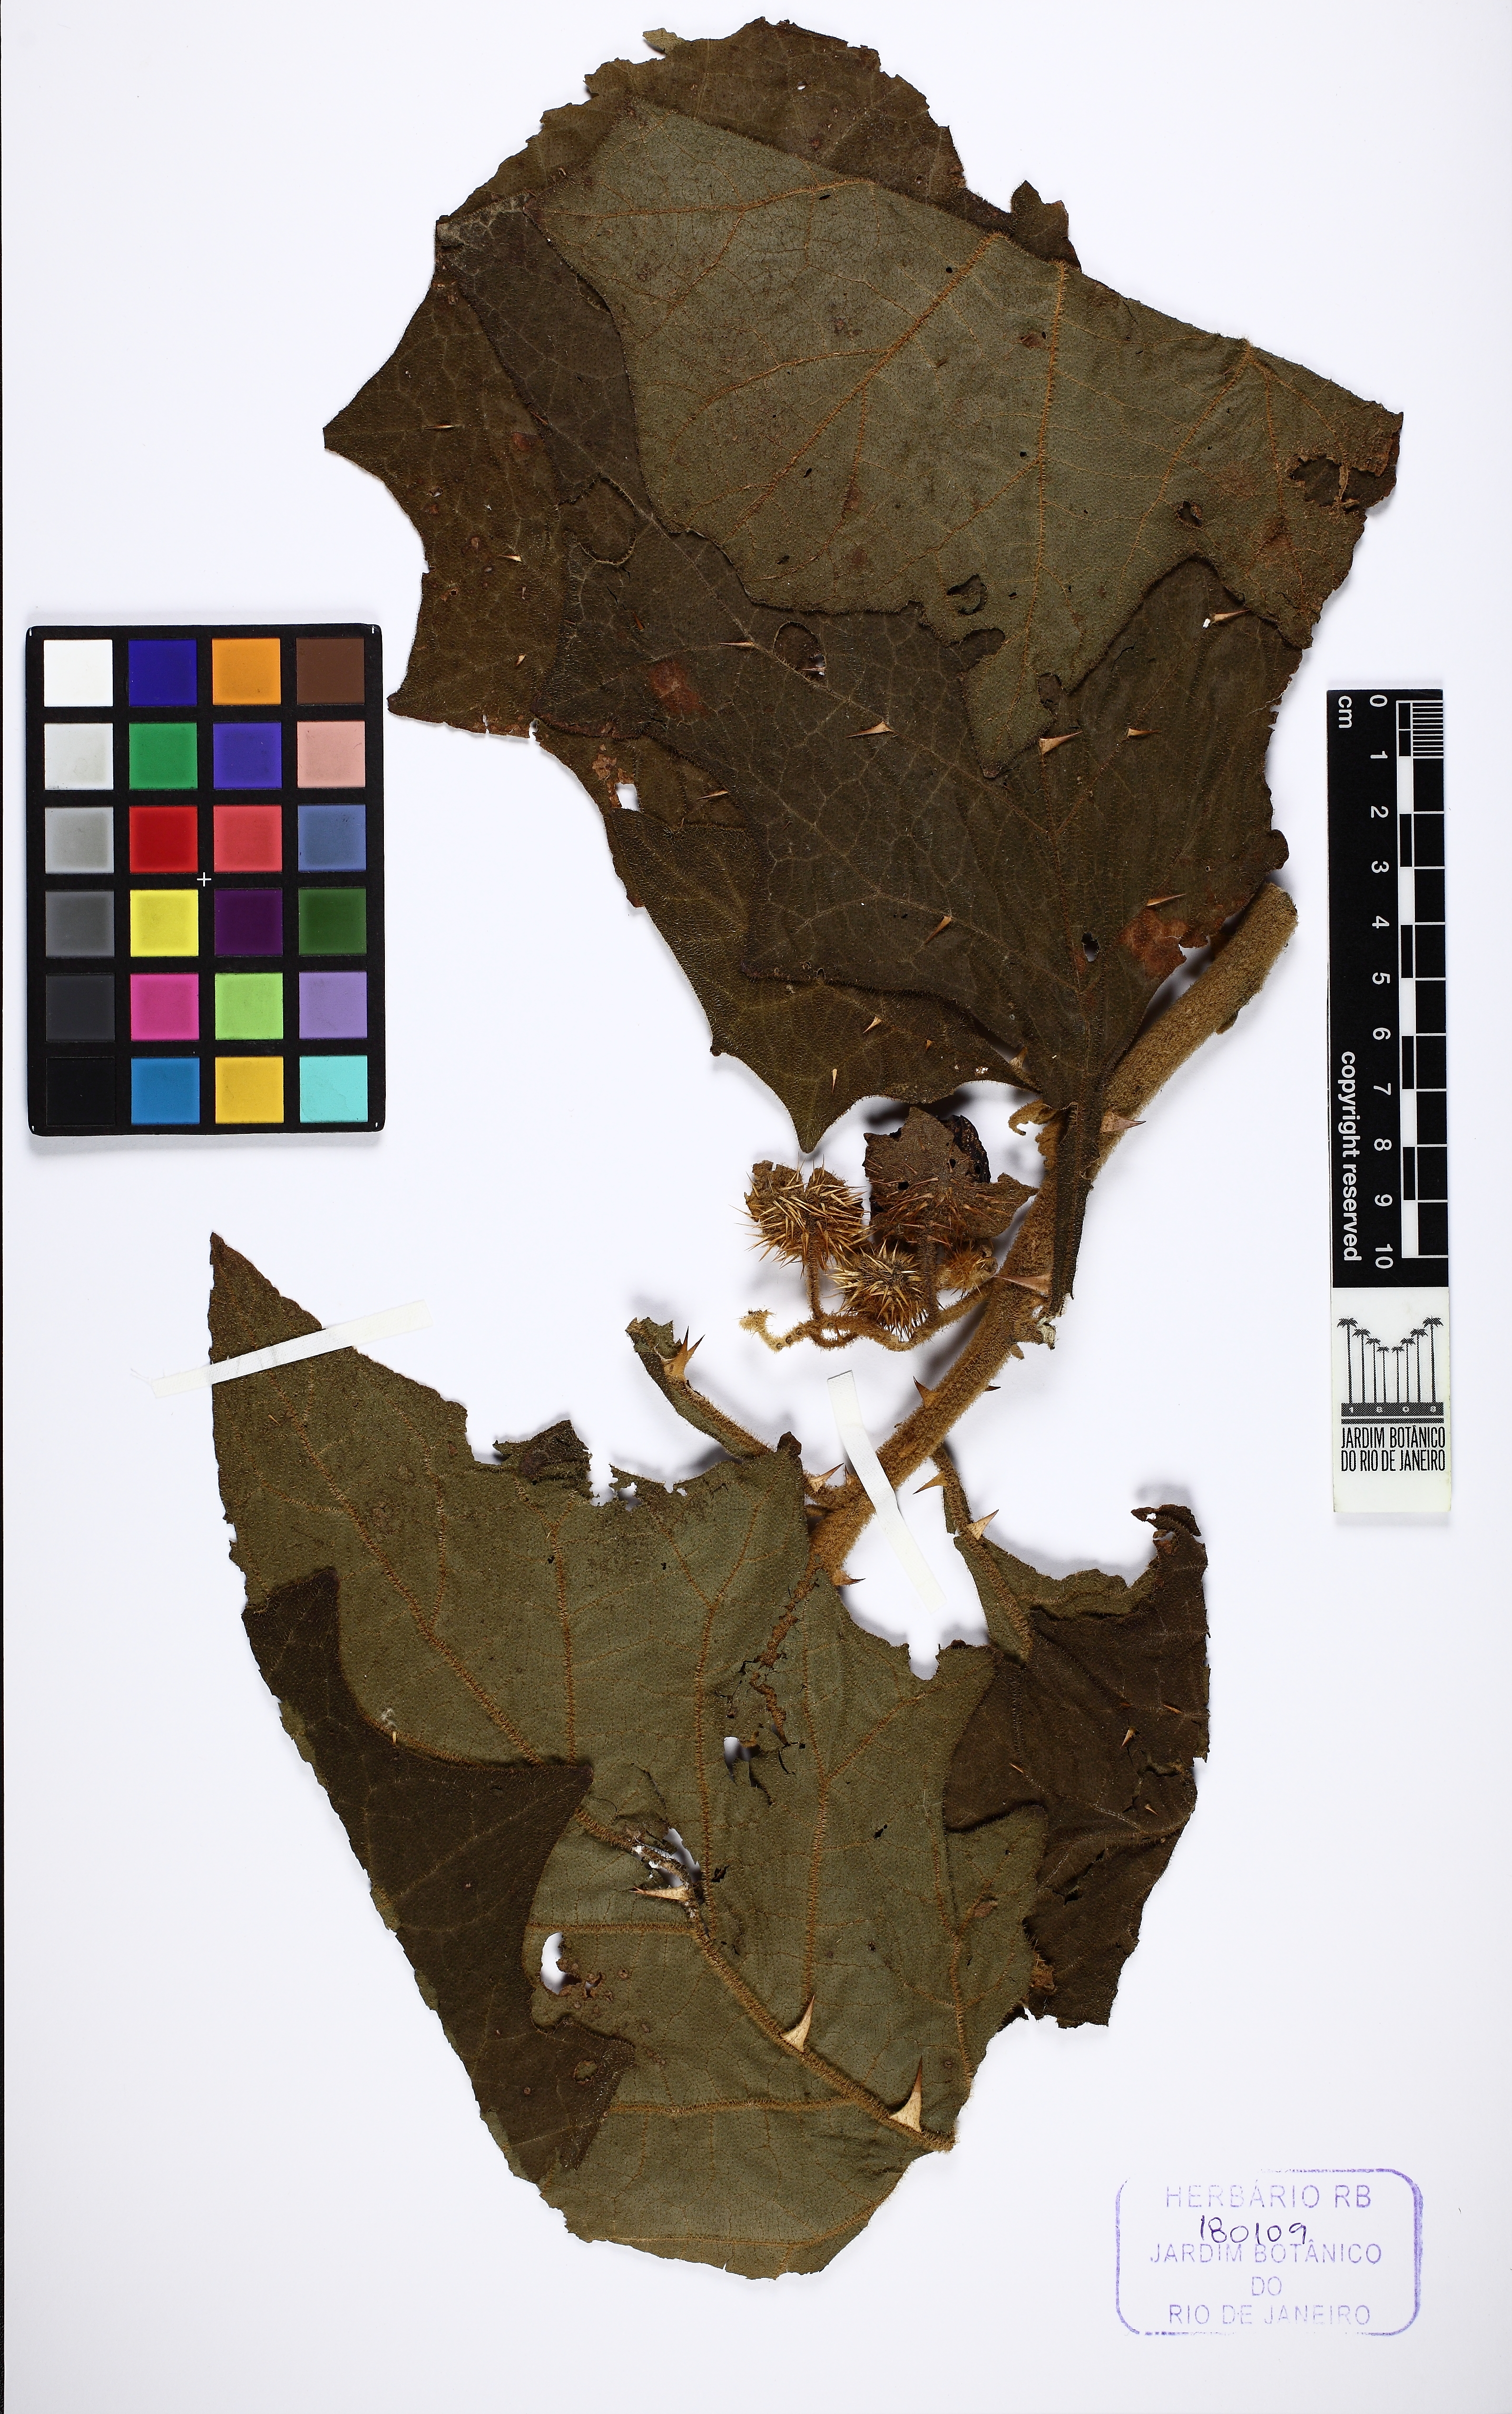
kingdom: Plantae
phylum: Tracheophyta
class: Magnoliopsida
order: Solanales
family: Solanaceae
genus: Solanum
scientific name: Solanum hexandrum
